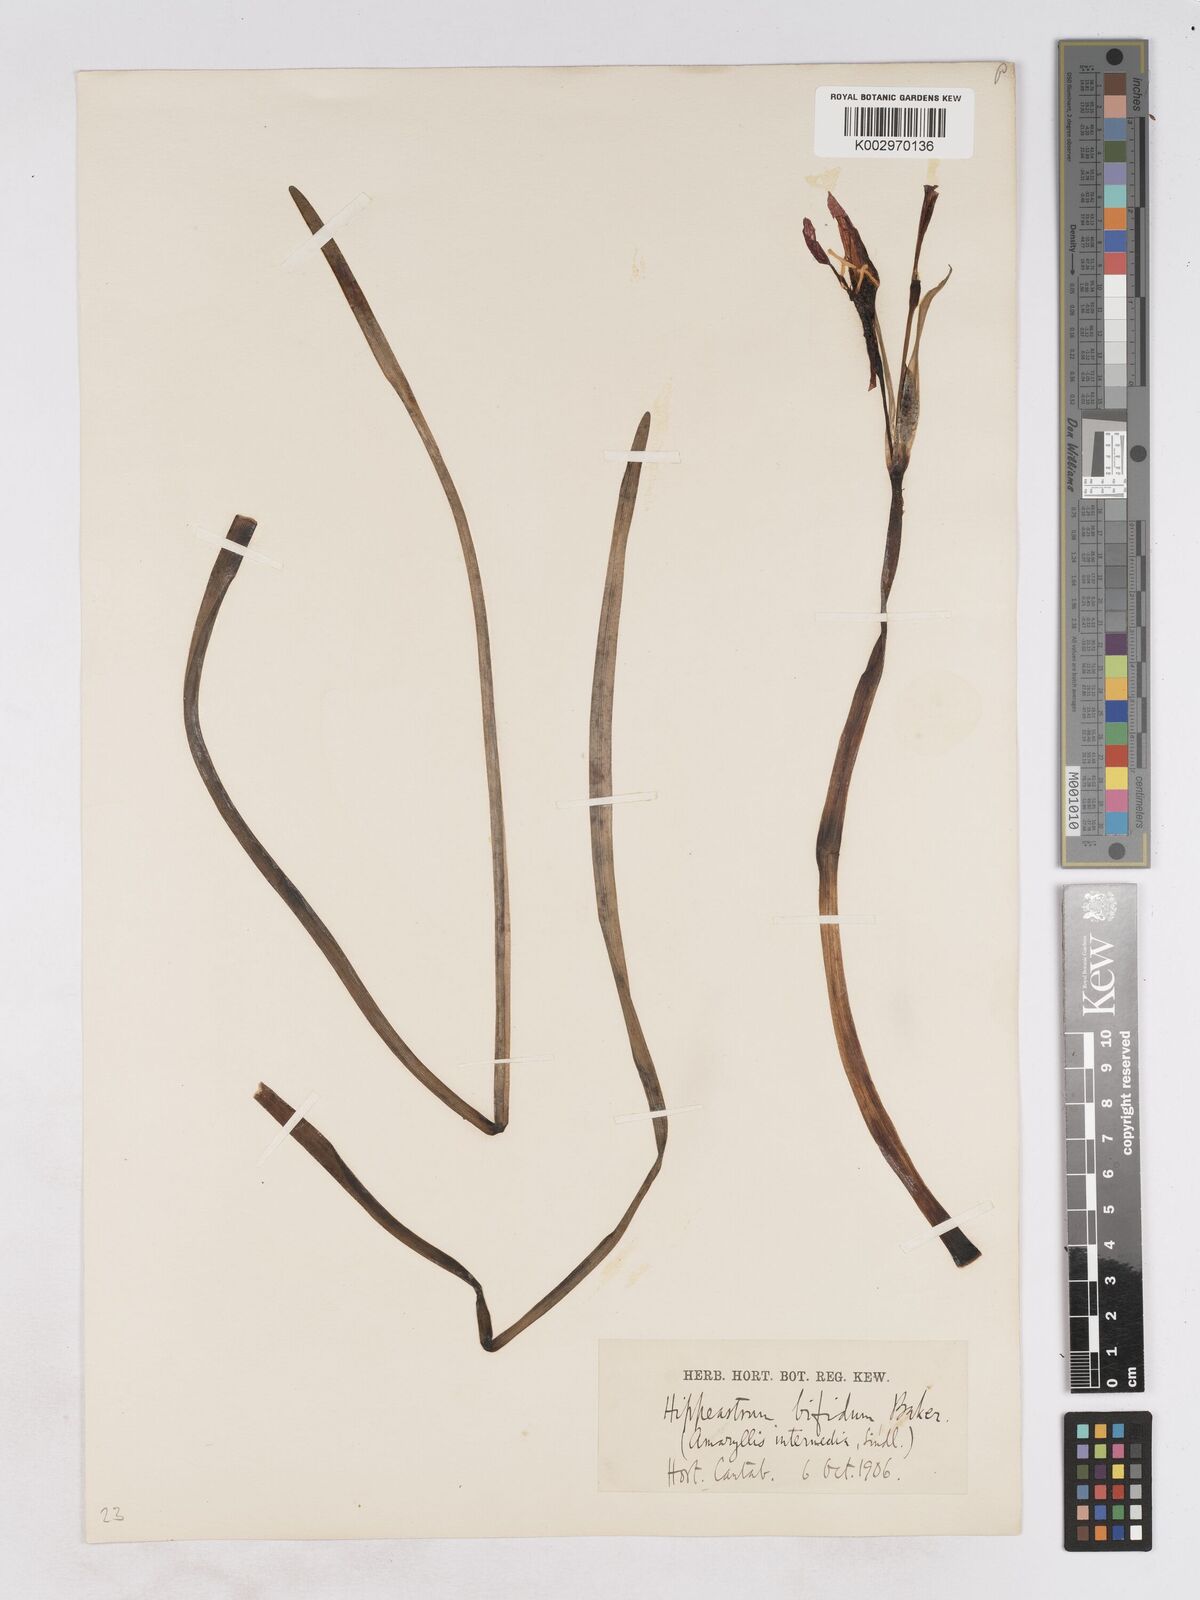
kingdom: Plantae
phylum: Tracheophyta
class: Liliopsida
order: Asparagales
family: Amaryllidaceae
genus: Zephyranthes
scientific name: Zephyranthes bifida
